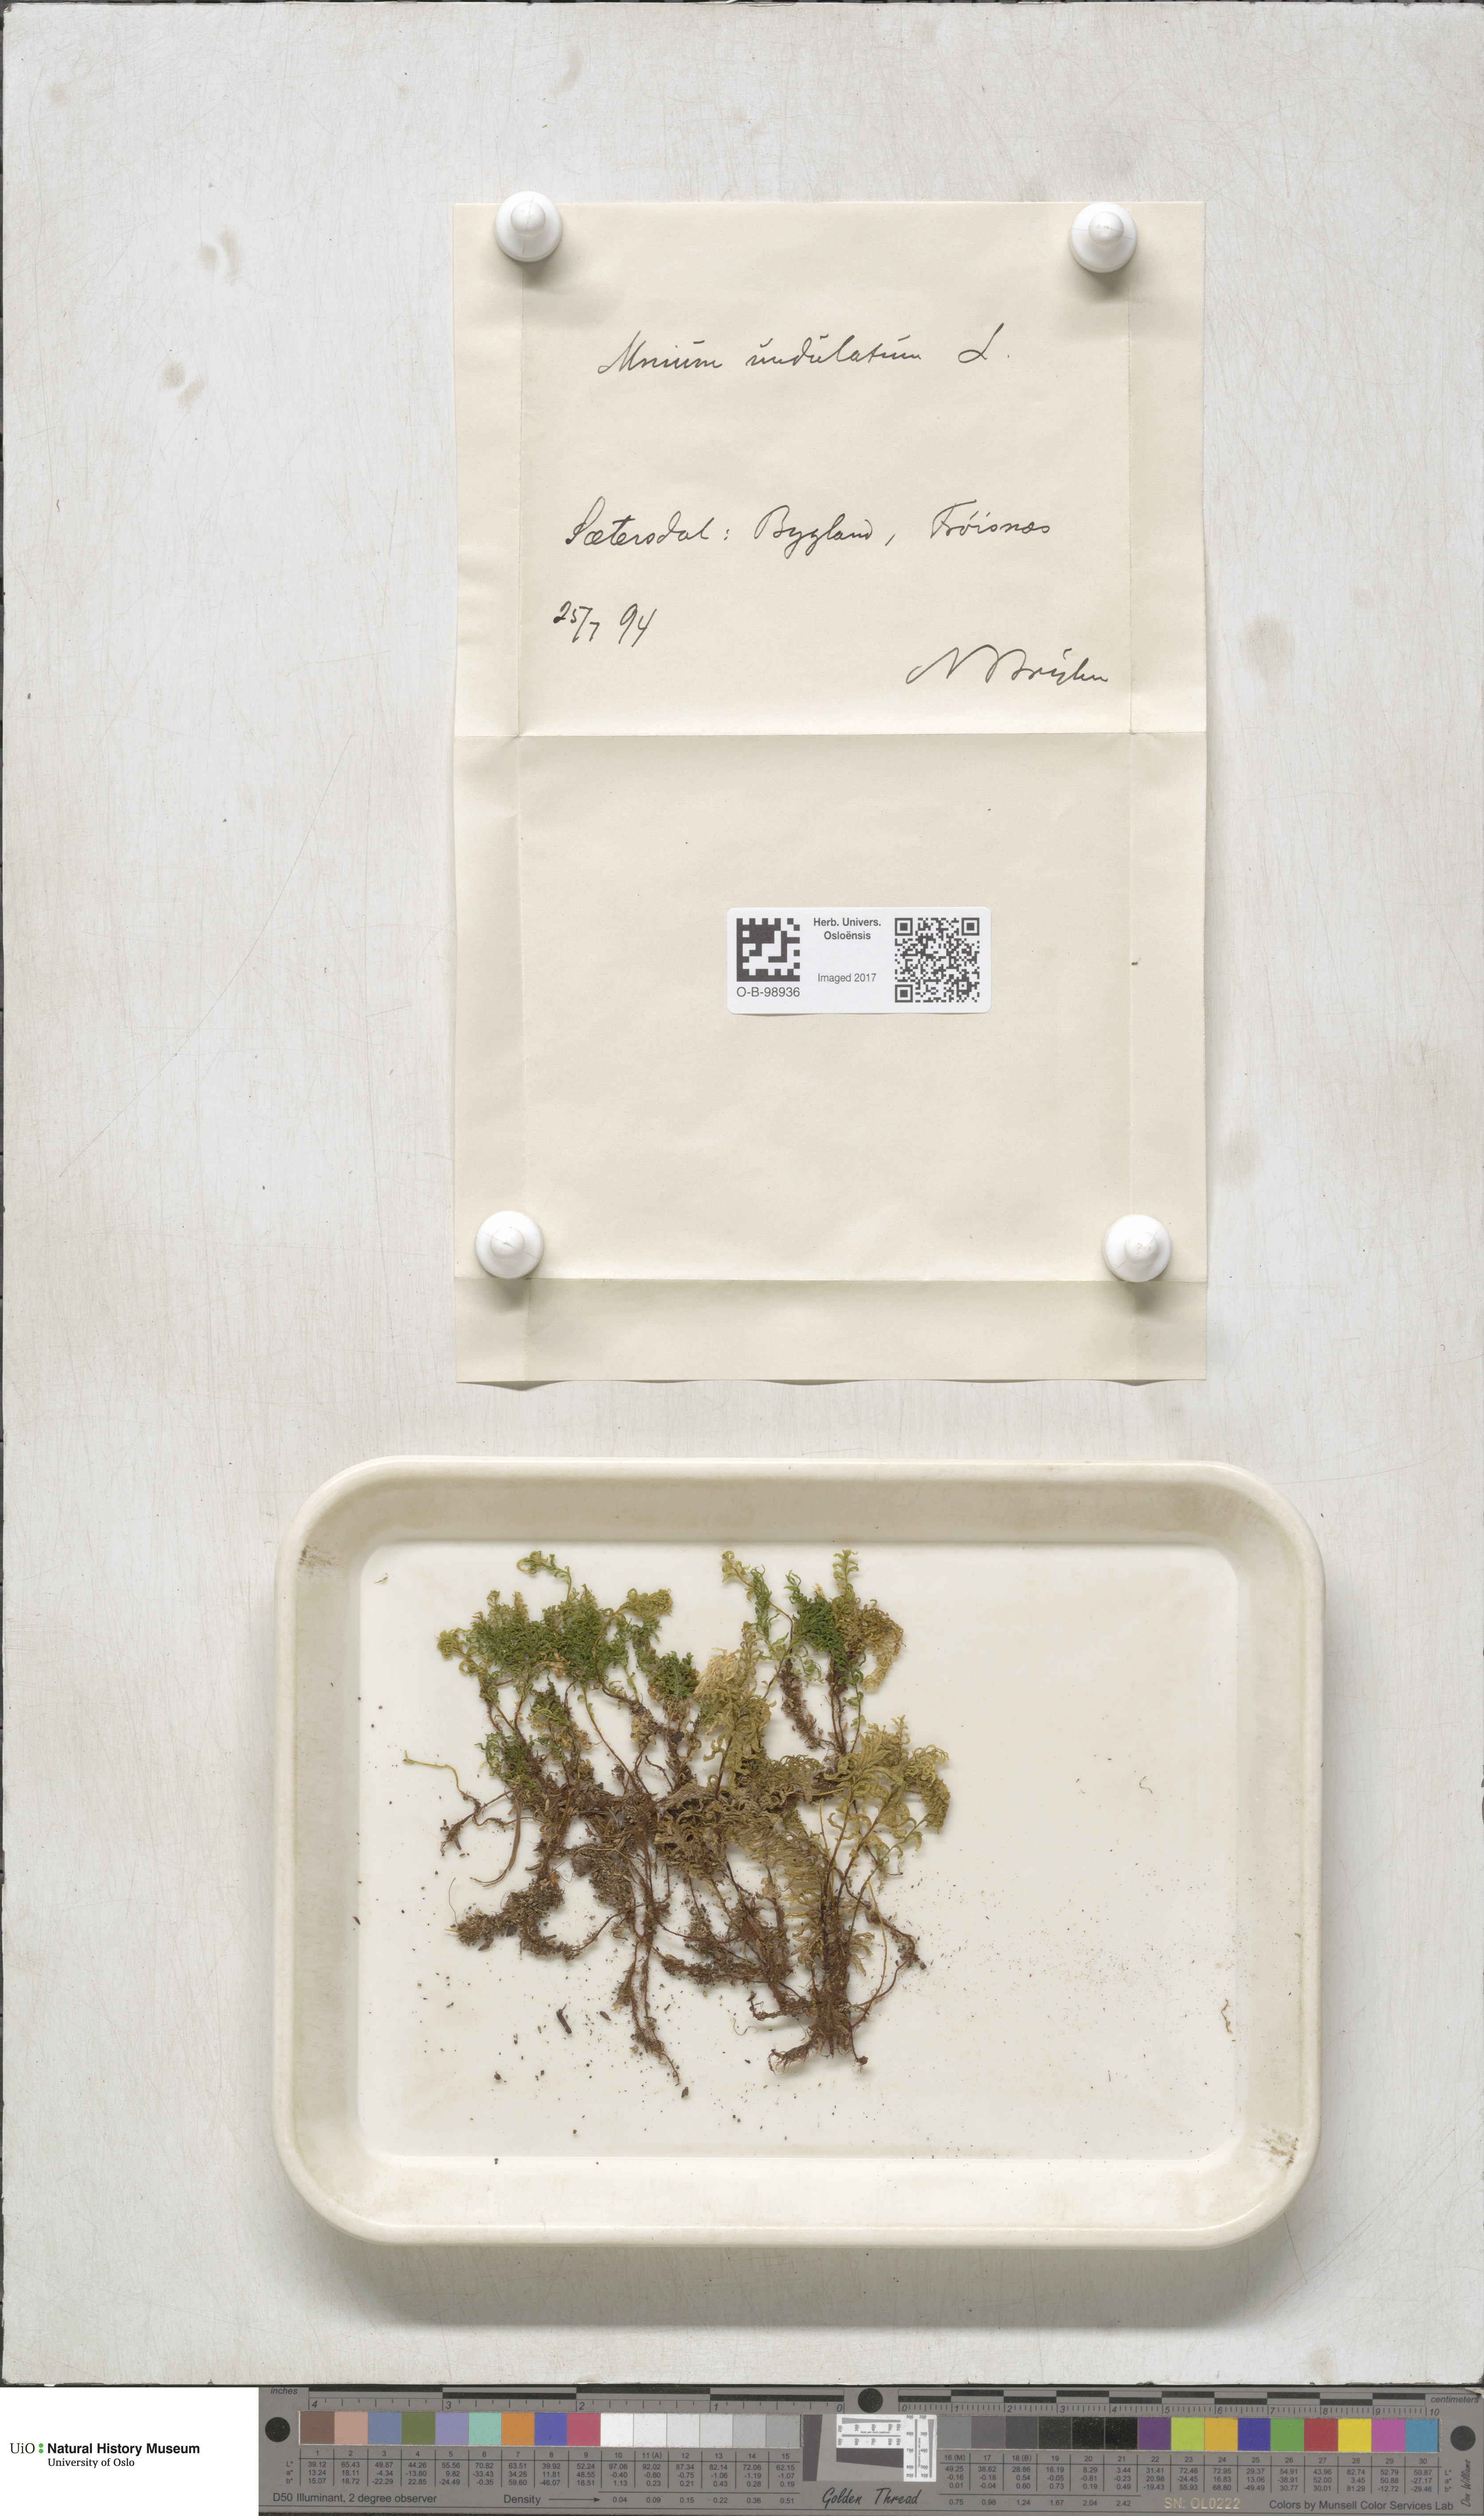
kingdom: Plantae
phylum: Bryophyta
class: Bryopsida
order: Bryales
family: Mniaceae
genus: Plagiomnium
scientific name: Plagiomnium undulatum
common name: Hart's-tongue thyme-moss
